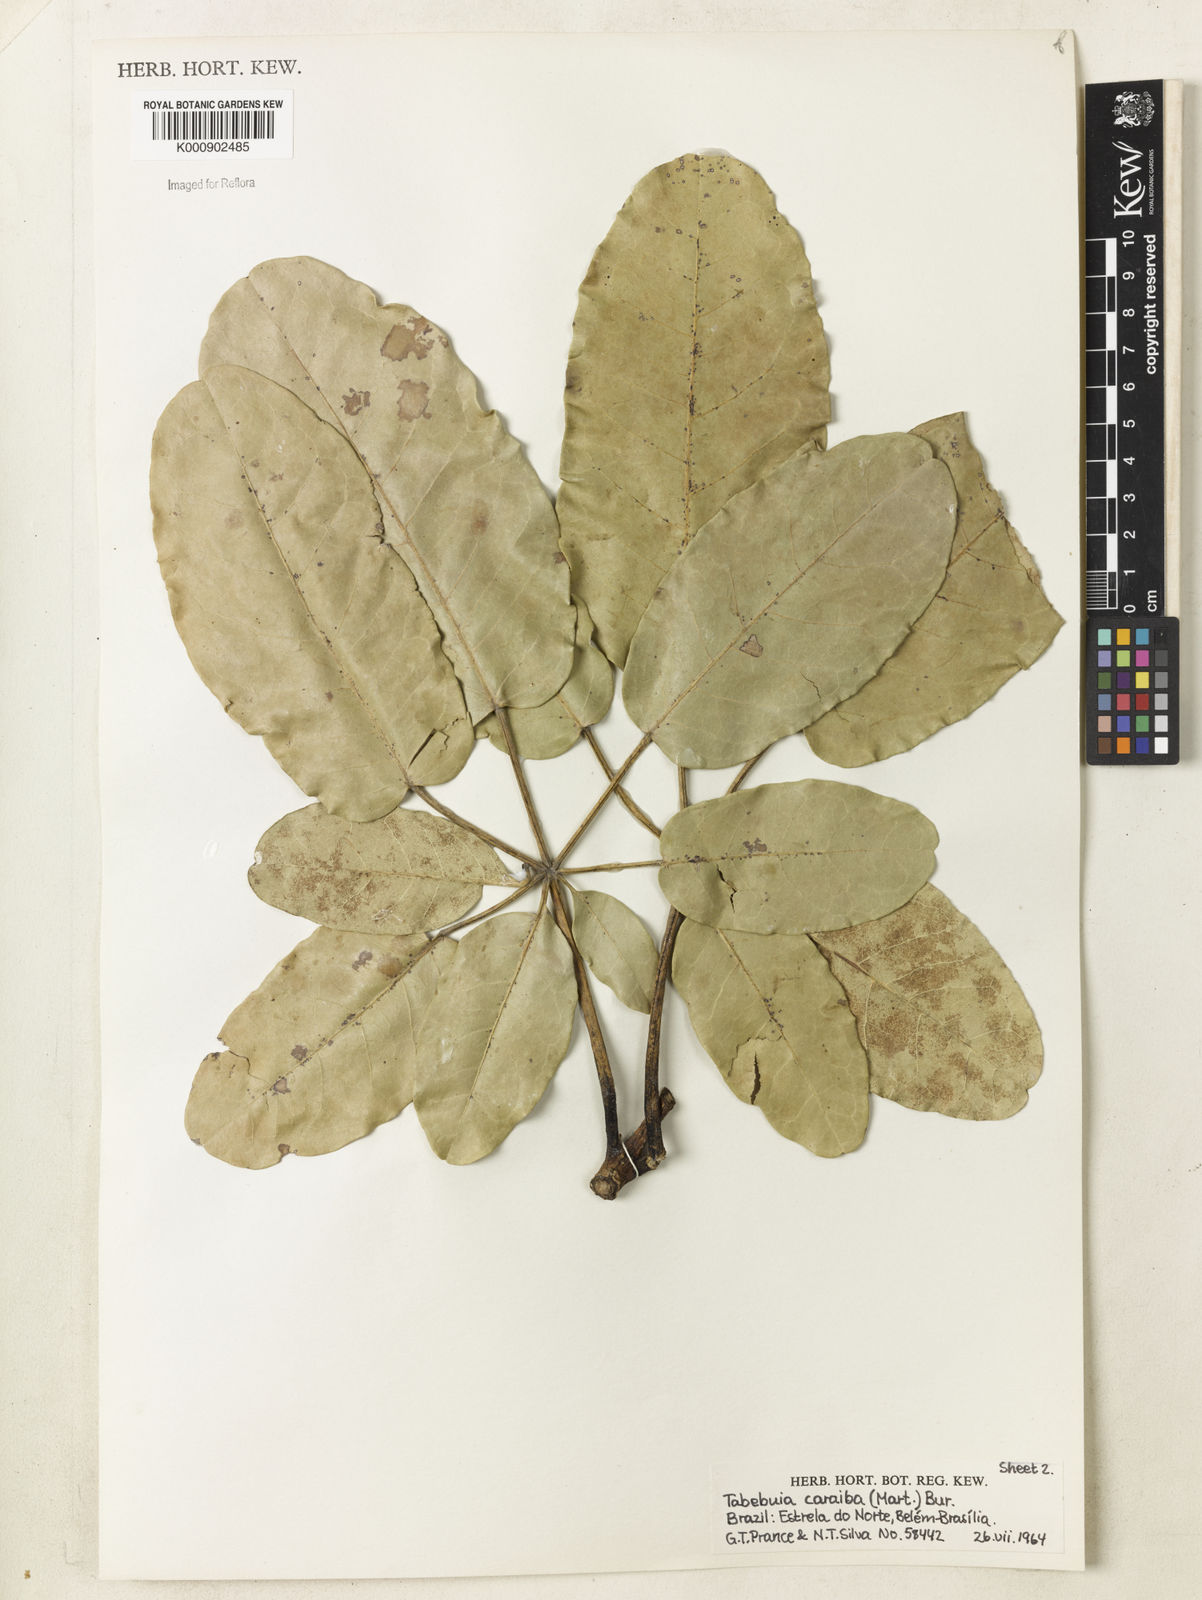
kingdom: Plantae
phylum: Tracheophyta
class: Magnoliopsida
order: Lamiales
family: Bignoniaceae
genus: Tabebuia
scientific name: Tabebuia aurea
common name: Caribbean trumpet-tree
